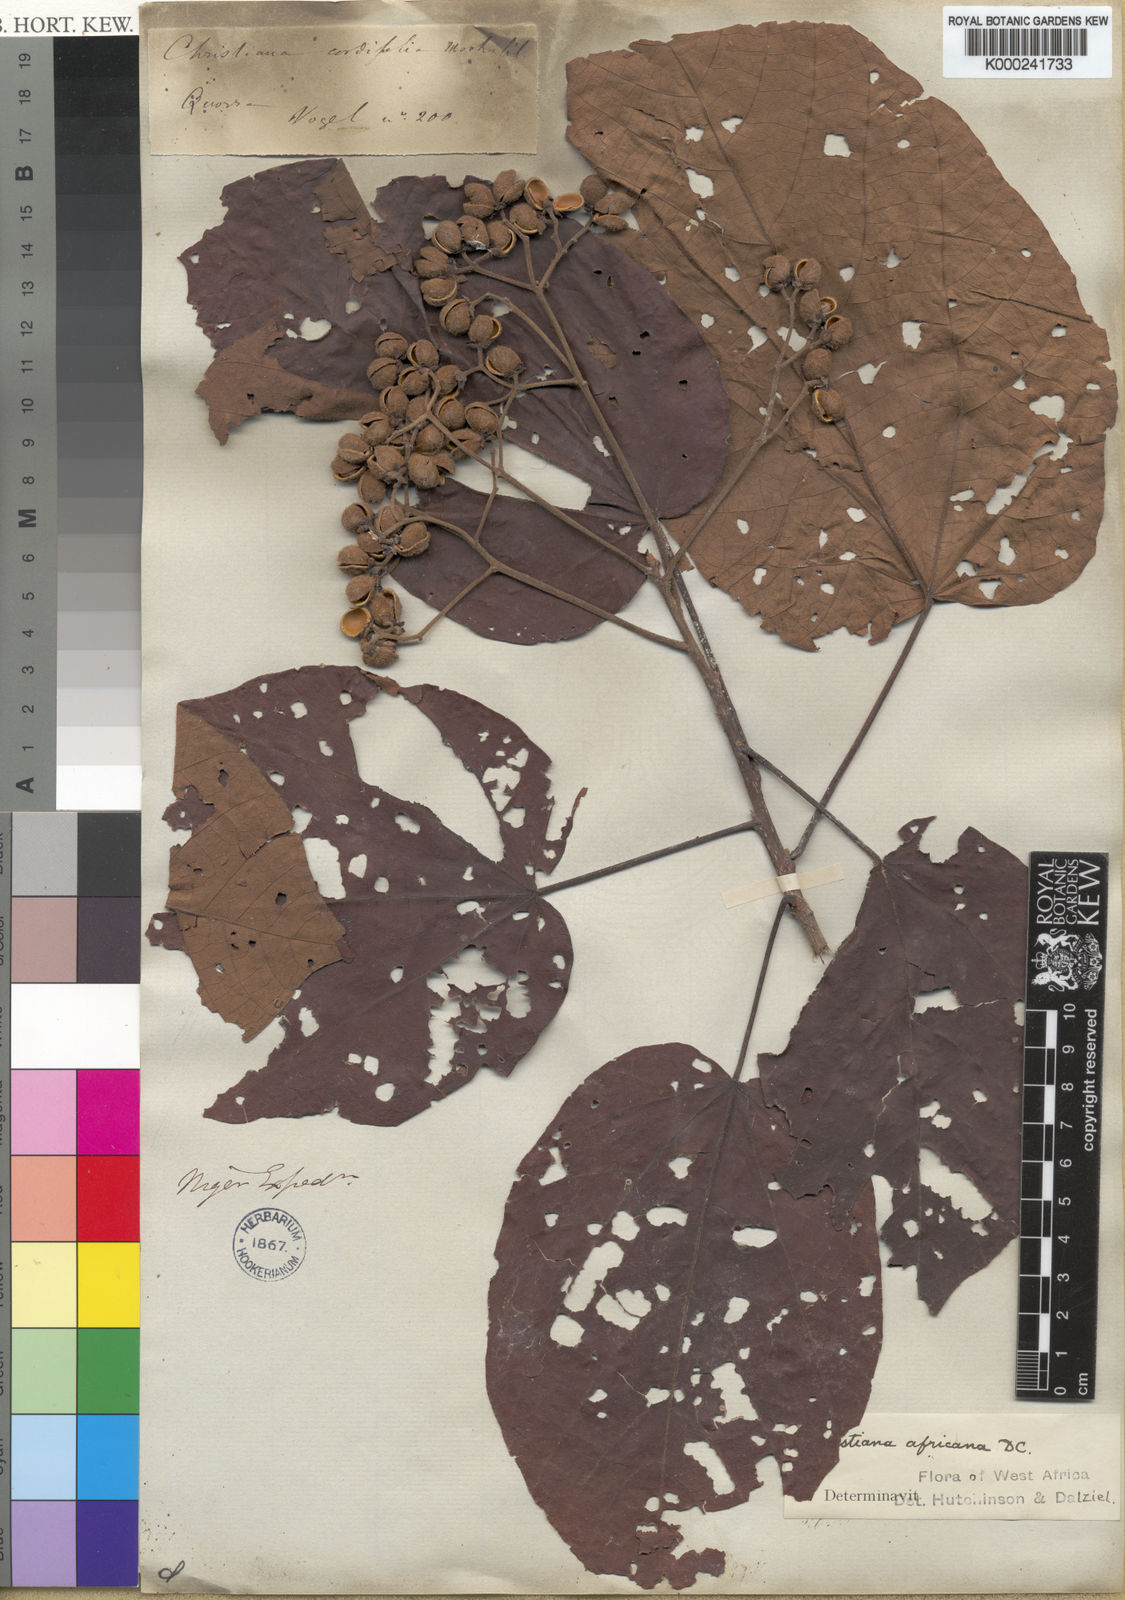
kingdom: Plantae
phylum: Tracheophyta
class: Magnoliopsida
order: Malvales
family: Malvaceae
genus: Christiana
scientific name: Christiana africana
